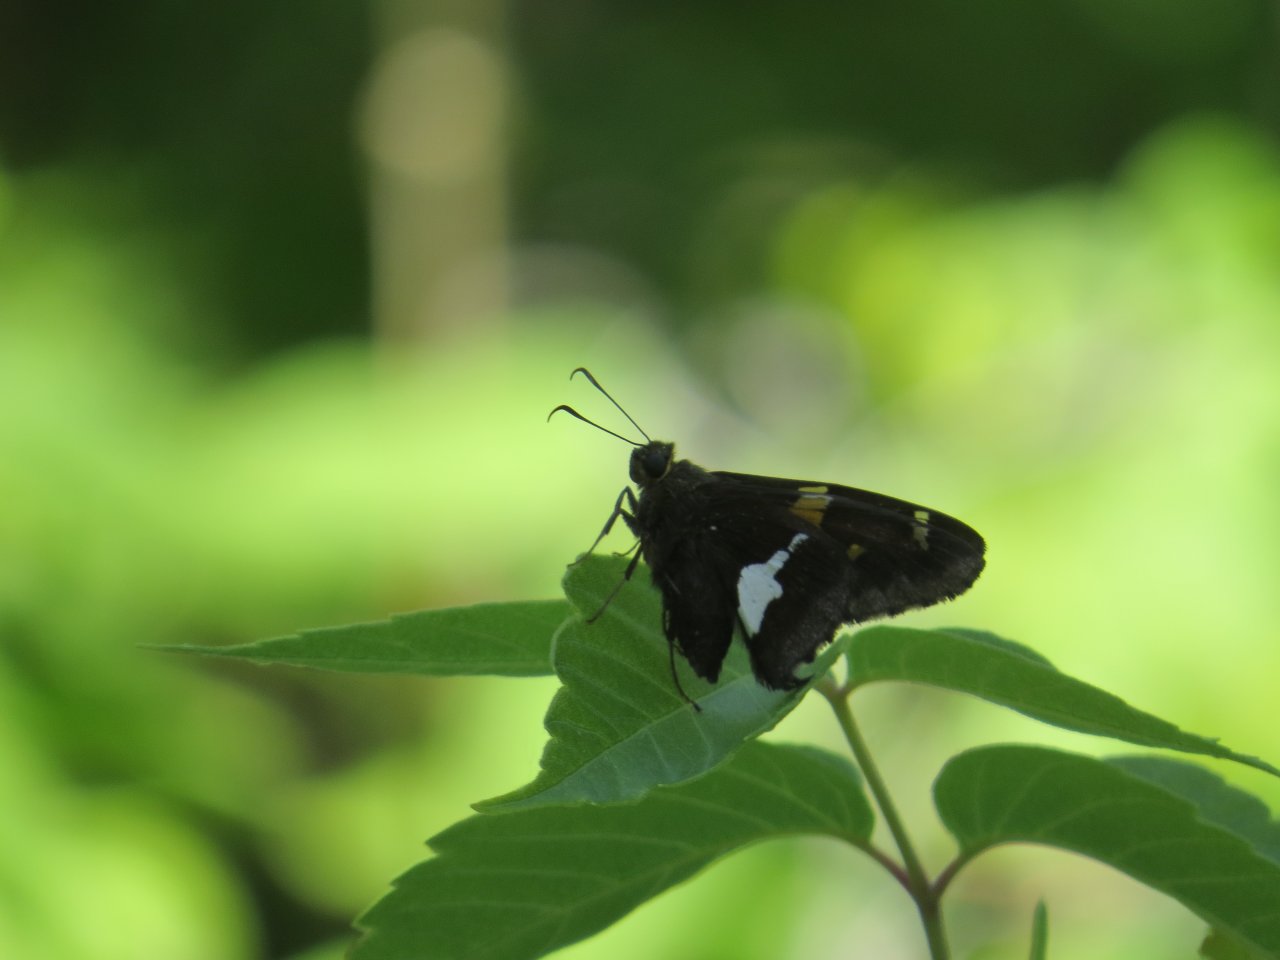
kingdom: Animalia
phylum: Arthropoda
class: Insecta
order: Lepidoptera
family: Hesperiidae
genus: Epargyreus
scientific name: Epargyreus clarus
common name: Silver-spotted Skipper
